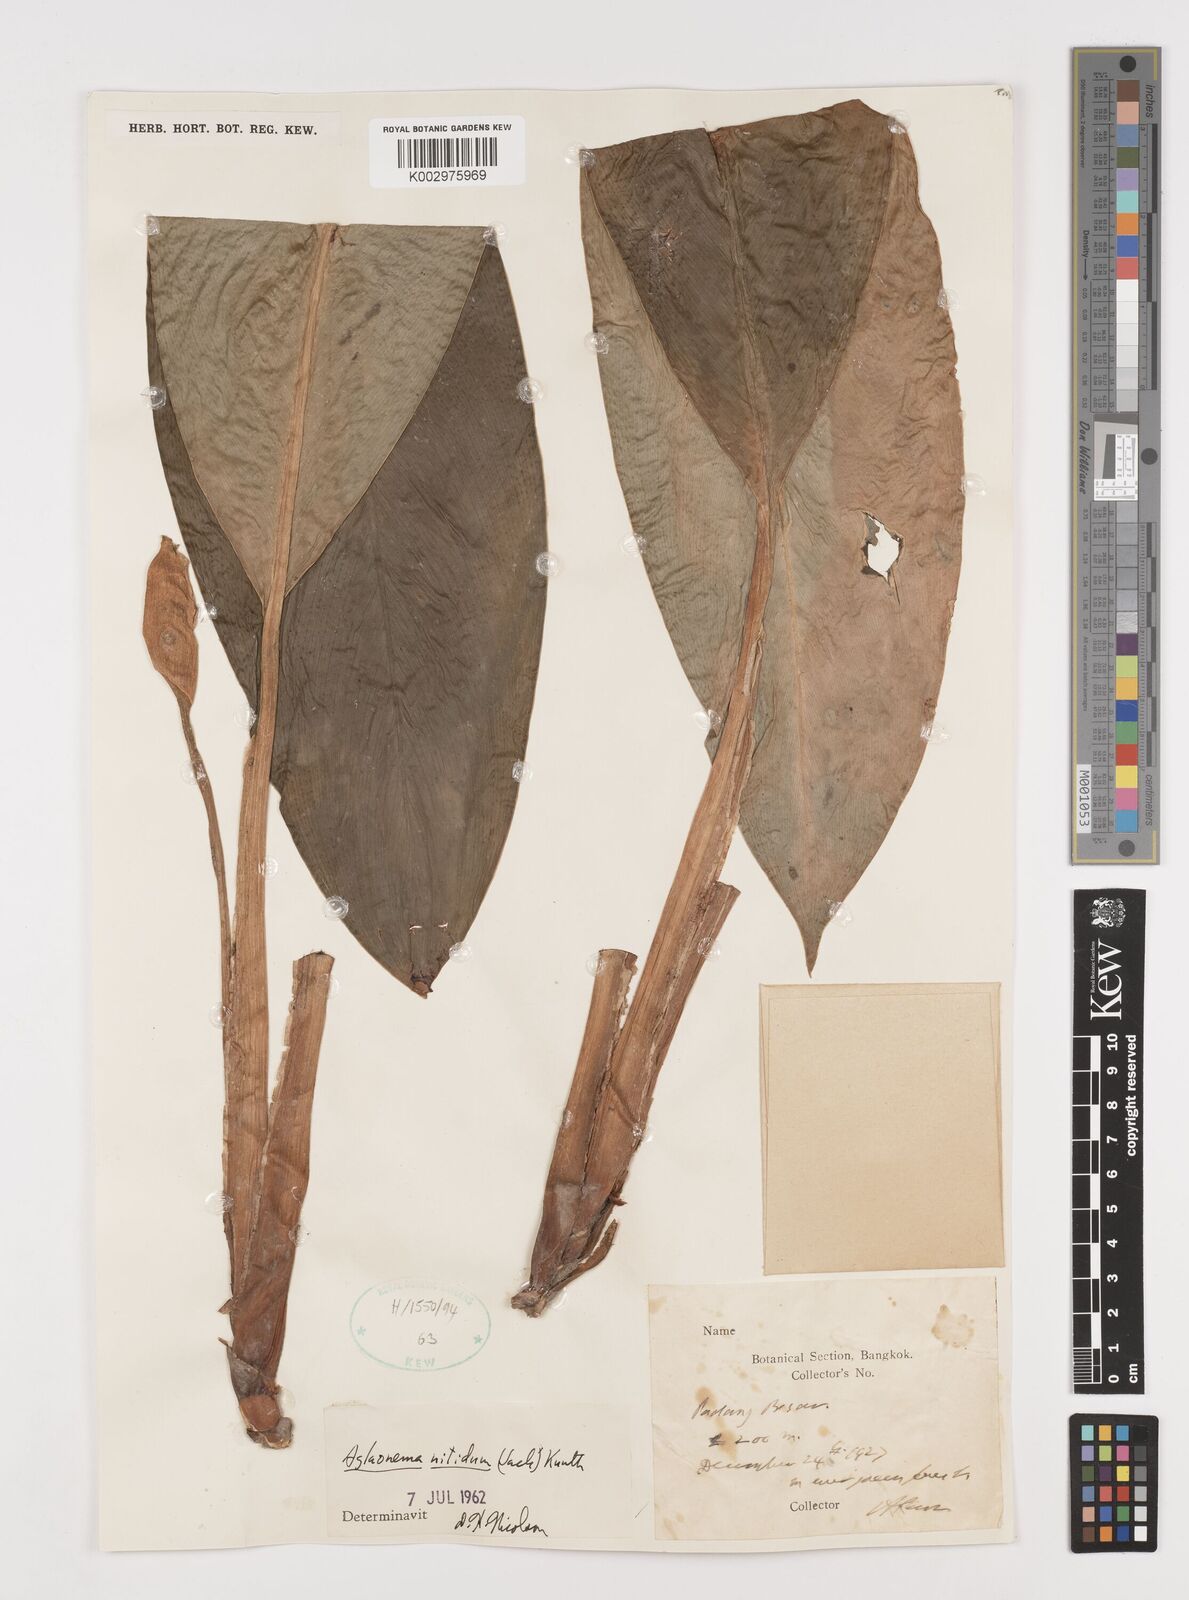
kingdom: Plantae
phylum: Tracheophyta
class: Liliopsida
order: Alismatales
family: Araceae
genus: Aglaonema
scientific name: Aglaonema nitidum
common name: Aglaonema aroid
